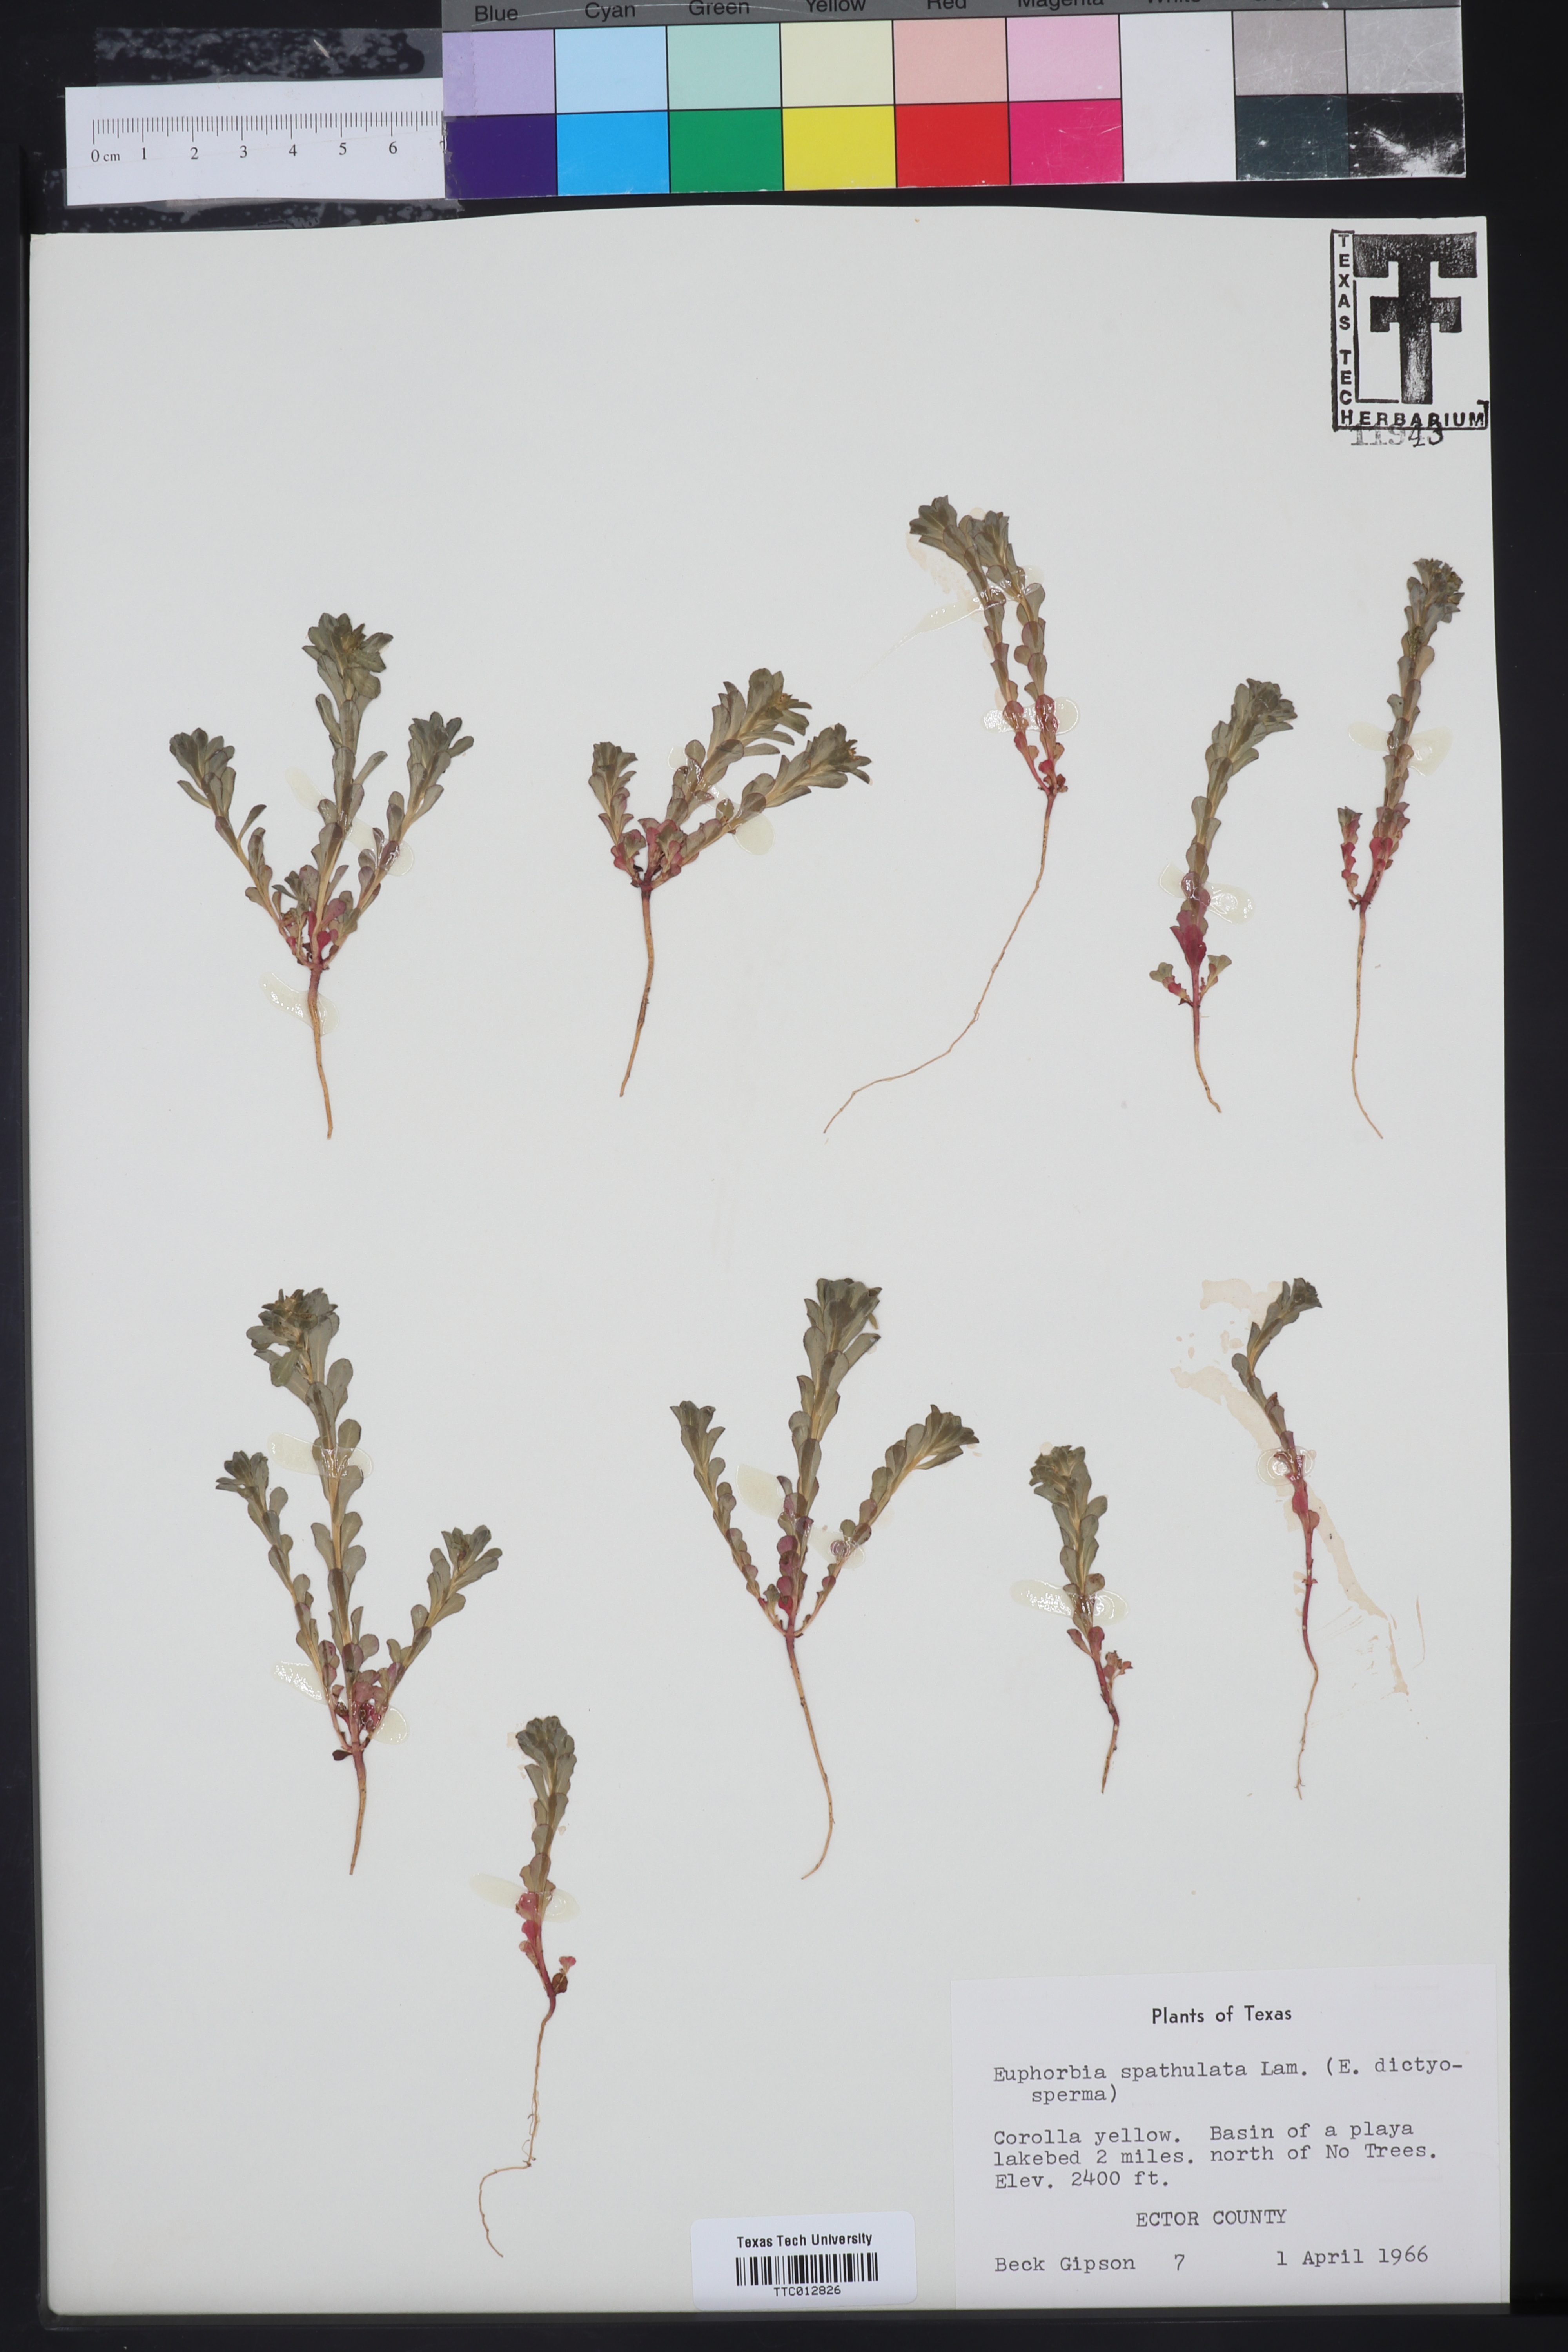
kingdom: Plantae
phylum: Tracheophyta
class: Magnoliopsida
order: Malpighiales
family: Euphorbiaceae
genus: Euphorbia
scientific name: Euphorbia spathulata
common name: Blunt spurge
